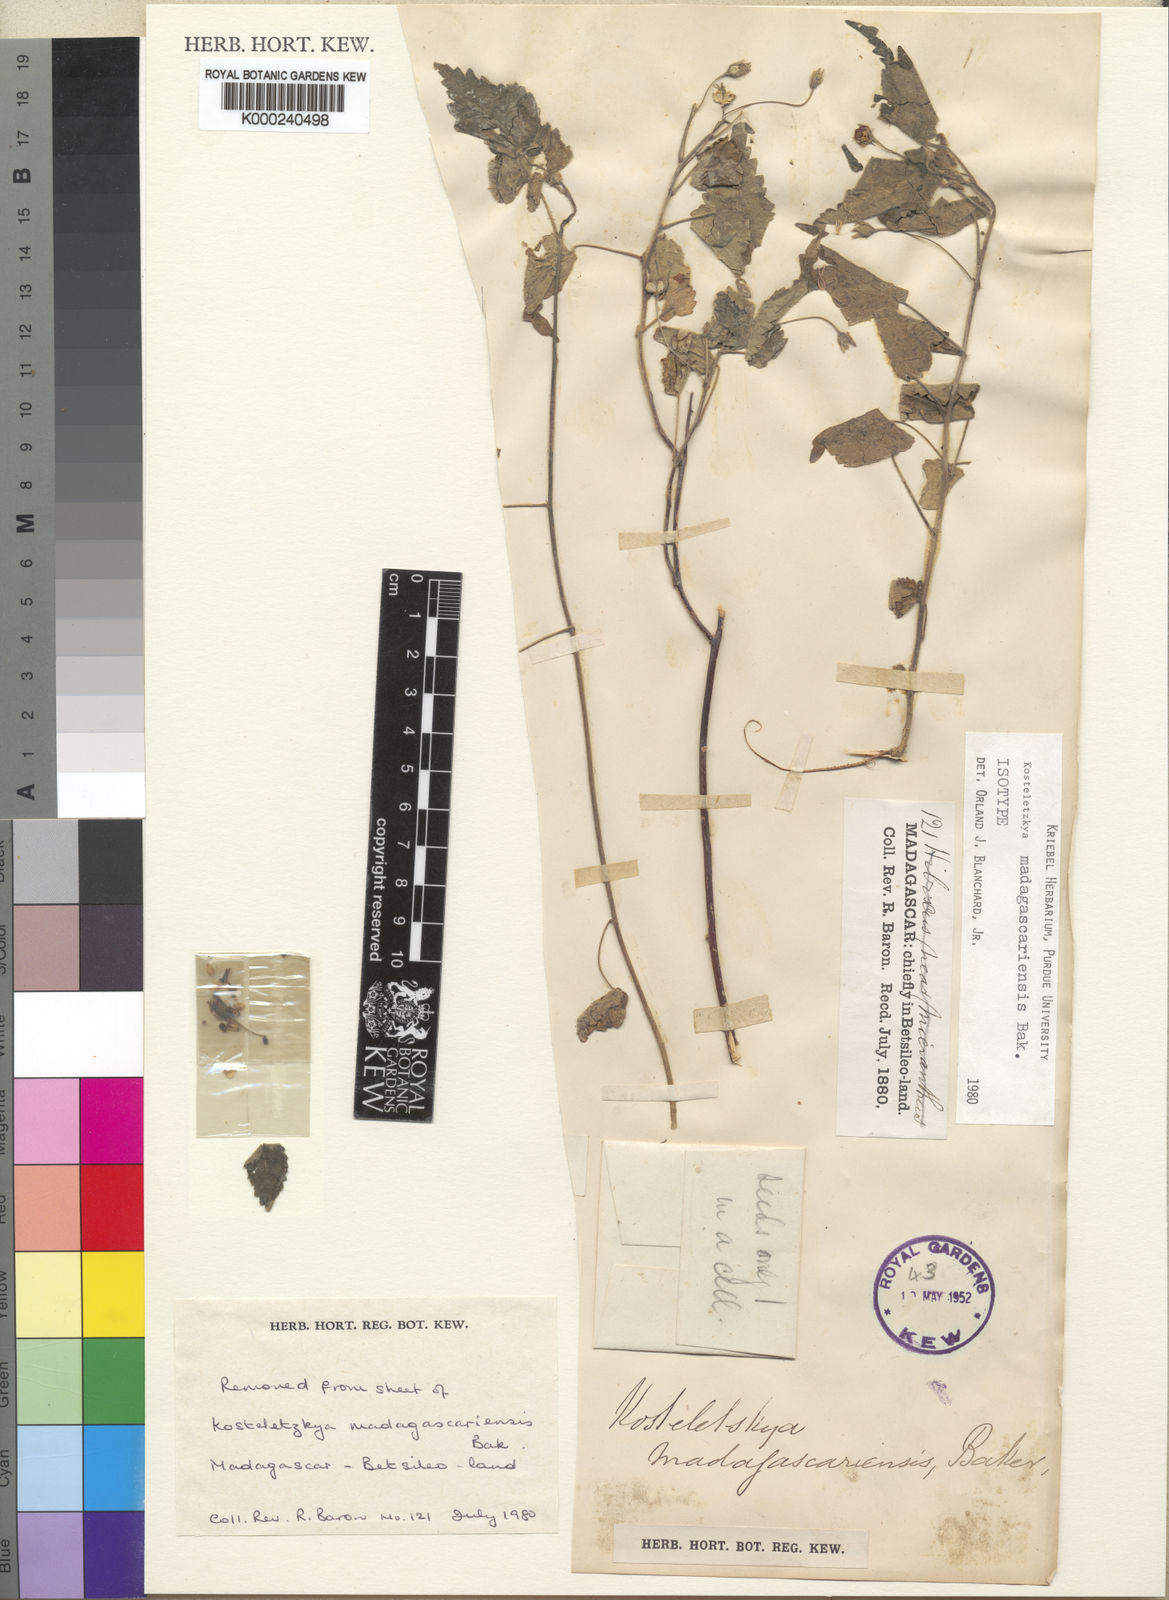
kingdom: Plantae
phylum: Tracheophyta
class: Magnoliopsida
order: Malvales
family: Malvaceae
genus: Perrierophytum
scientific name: Perrierophytum madagascariense
